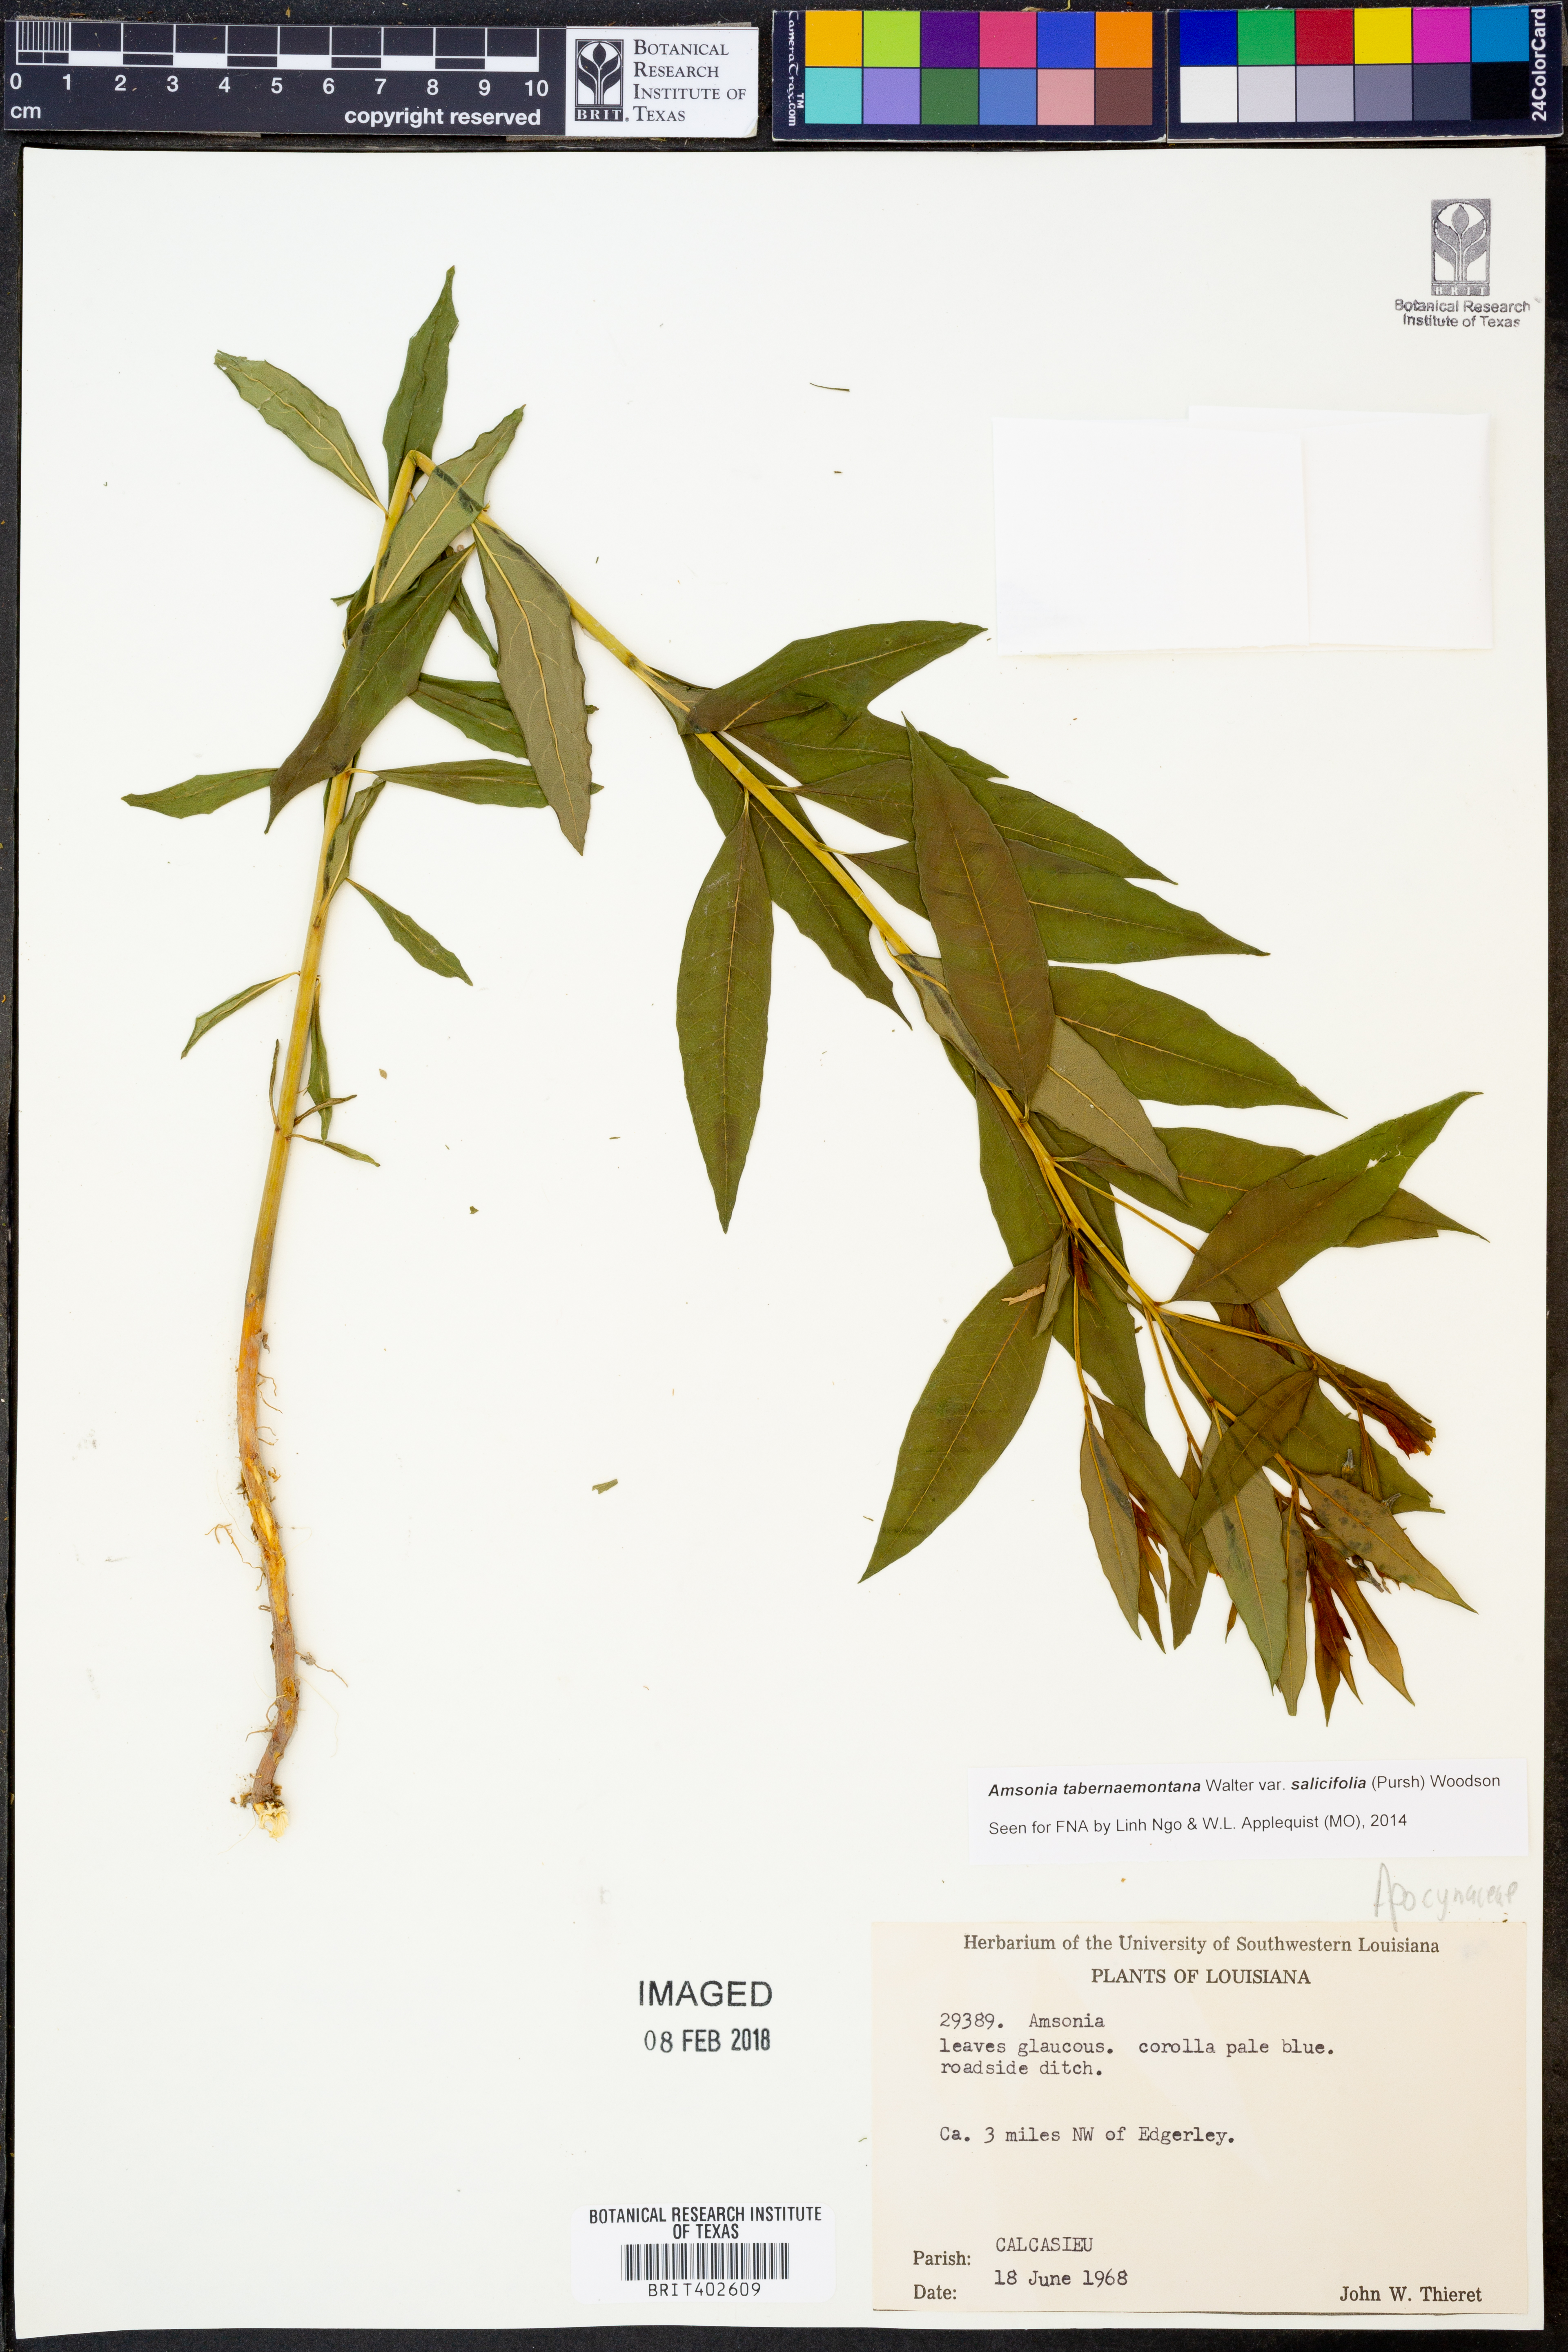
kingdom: Plantae
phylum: Tracheophyta
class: Magnoliopsida
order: Gentianales
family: Apocynaceae
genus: Amsonia
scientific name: Amsonia tabernaemontana
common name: Texas-star
